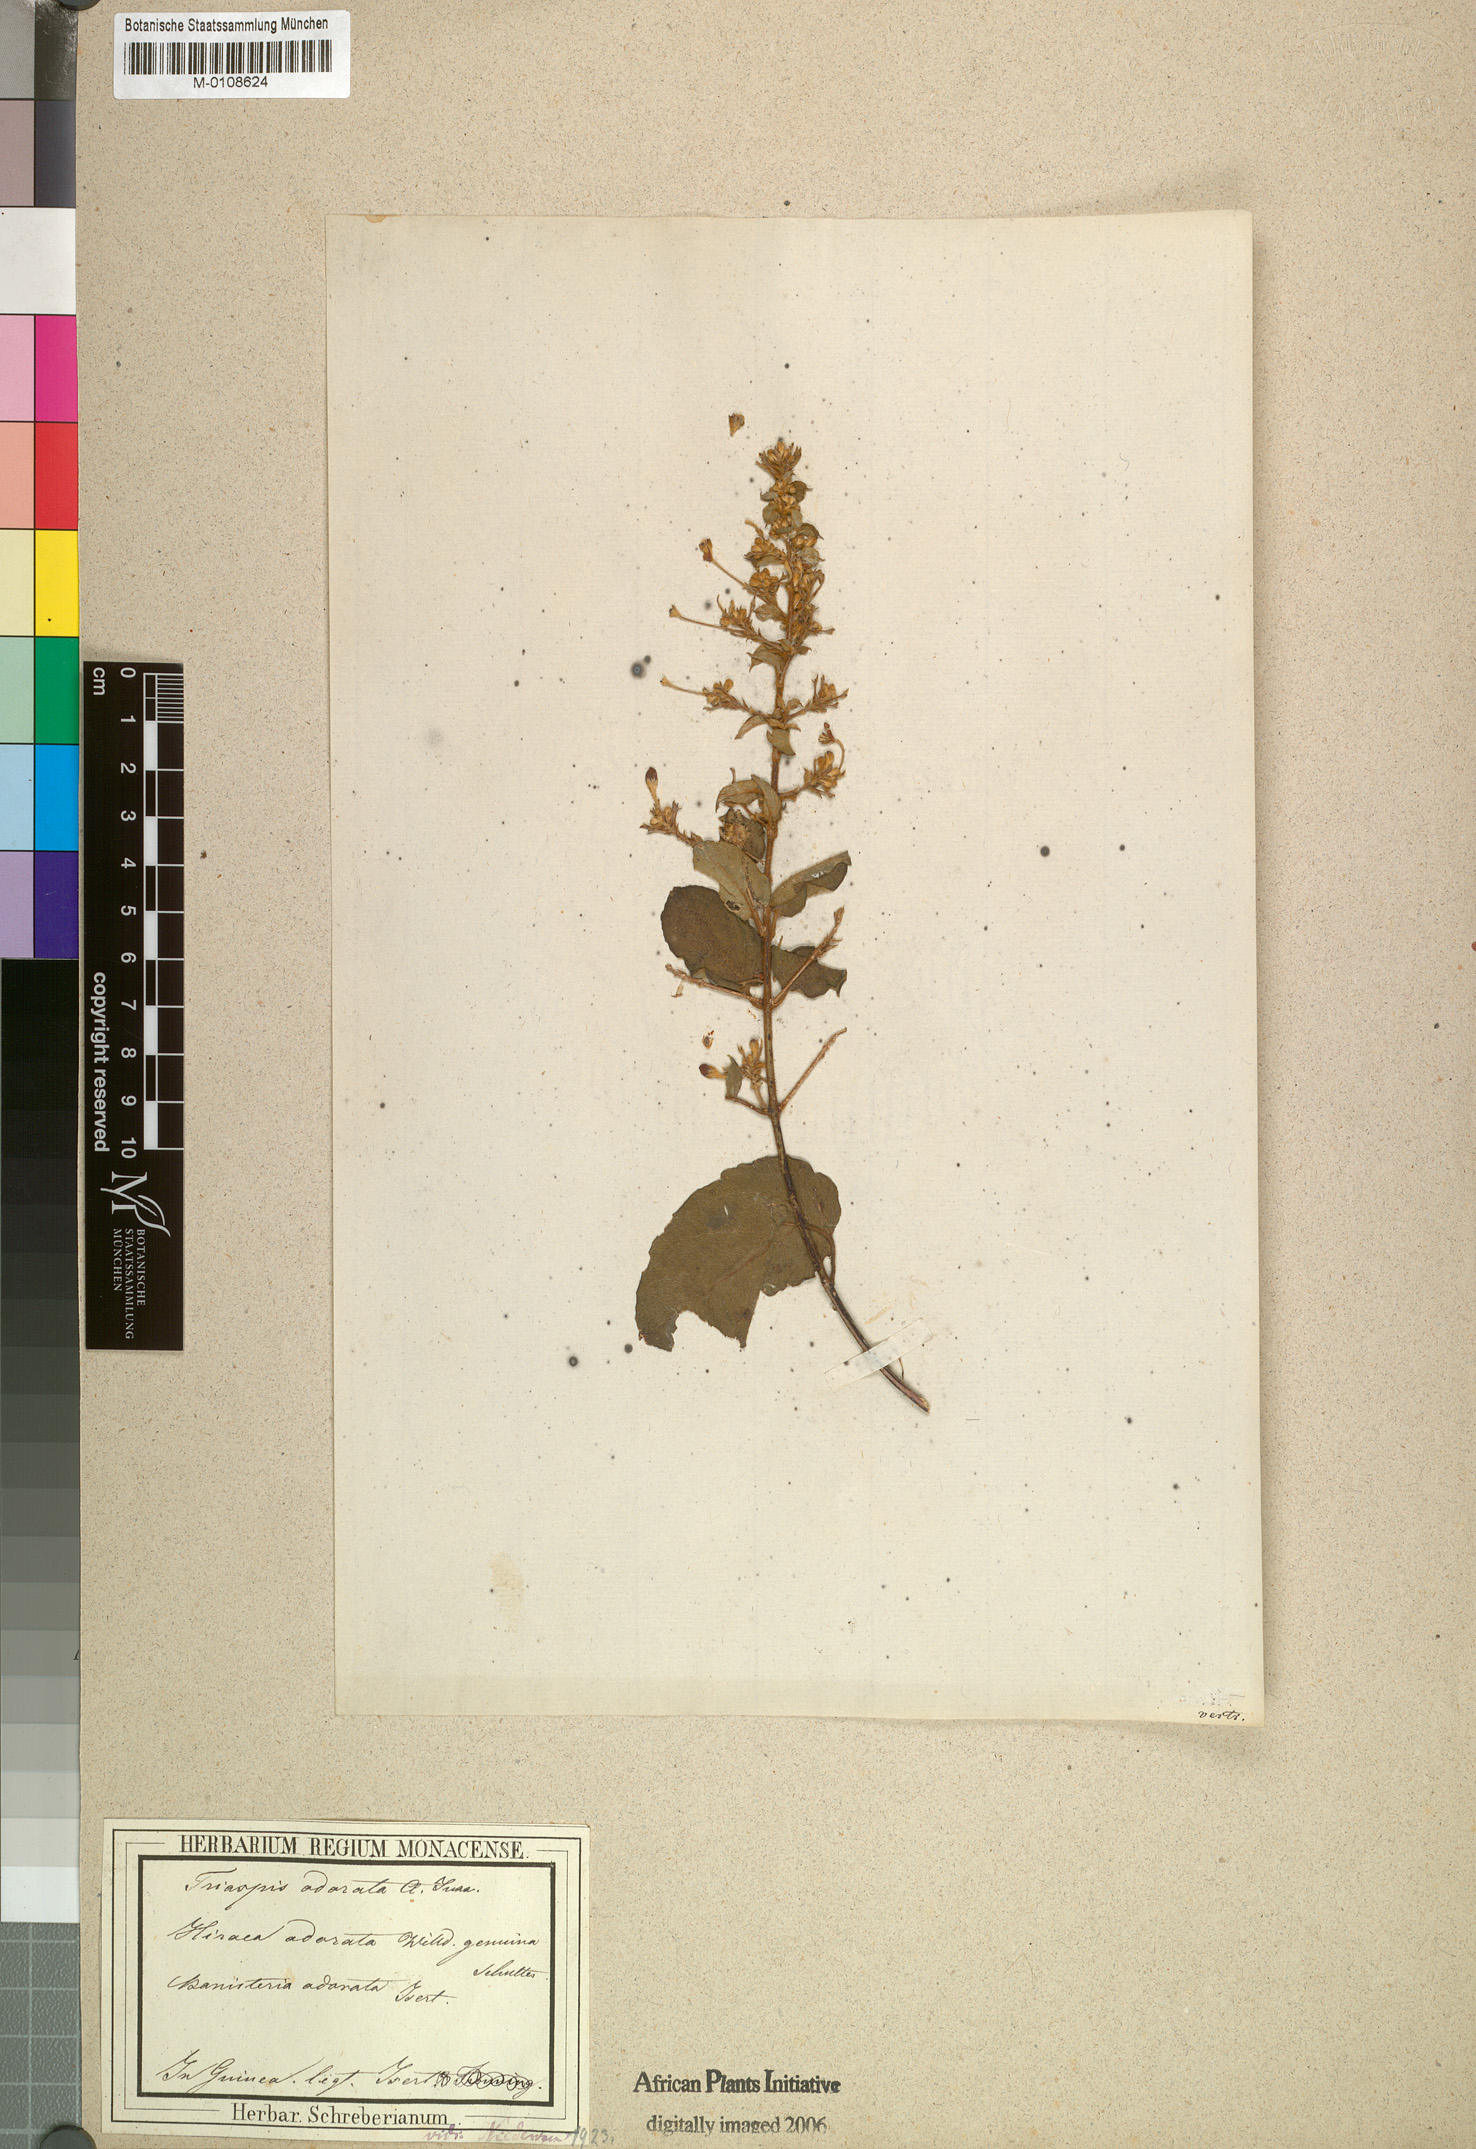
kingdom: Plantae
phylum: Tracheophyta
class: Magnoliopsida
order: Malpighiales
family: Malpighiaceae
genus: Triaspis
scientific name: Triaspis odorata
